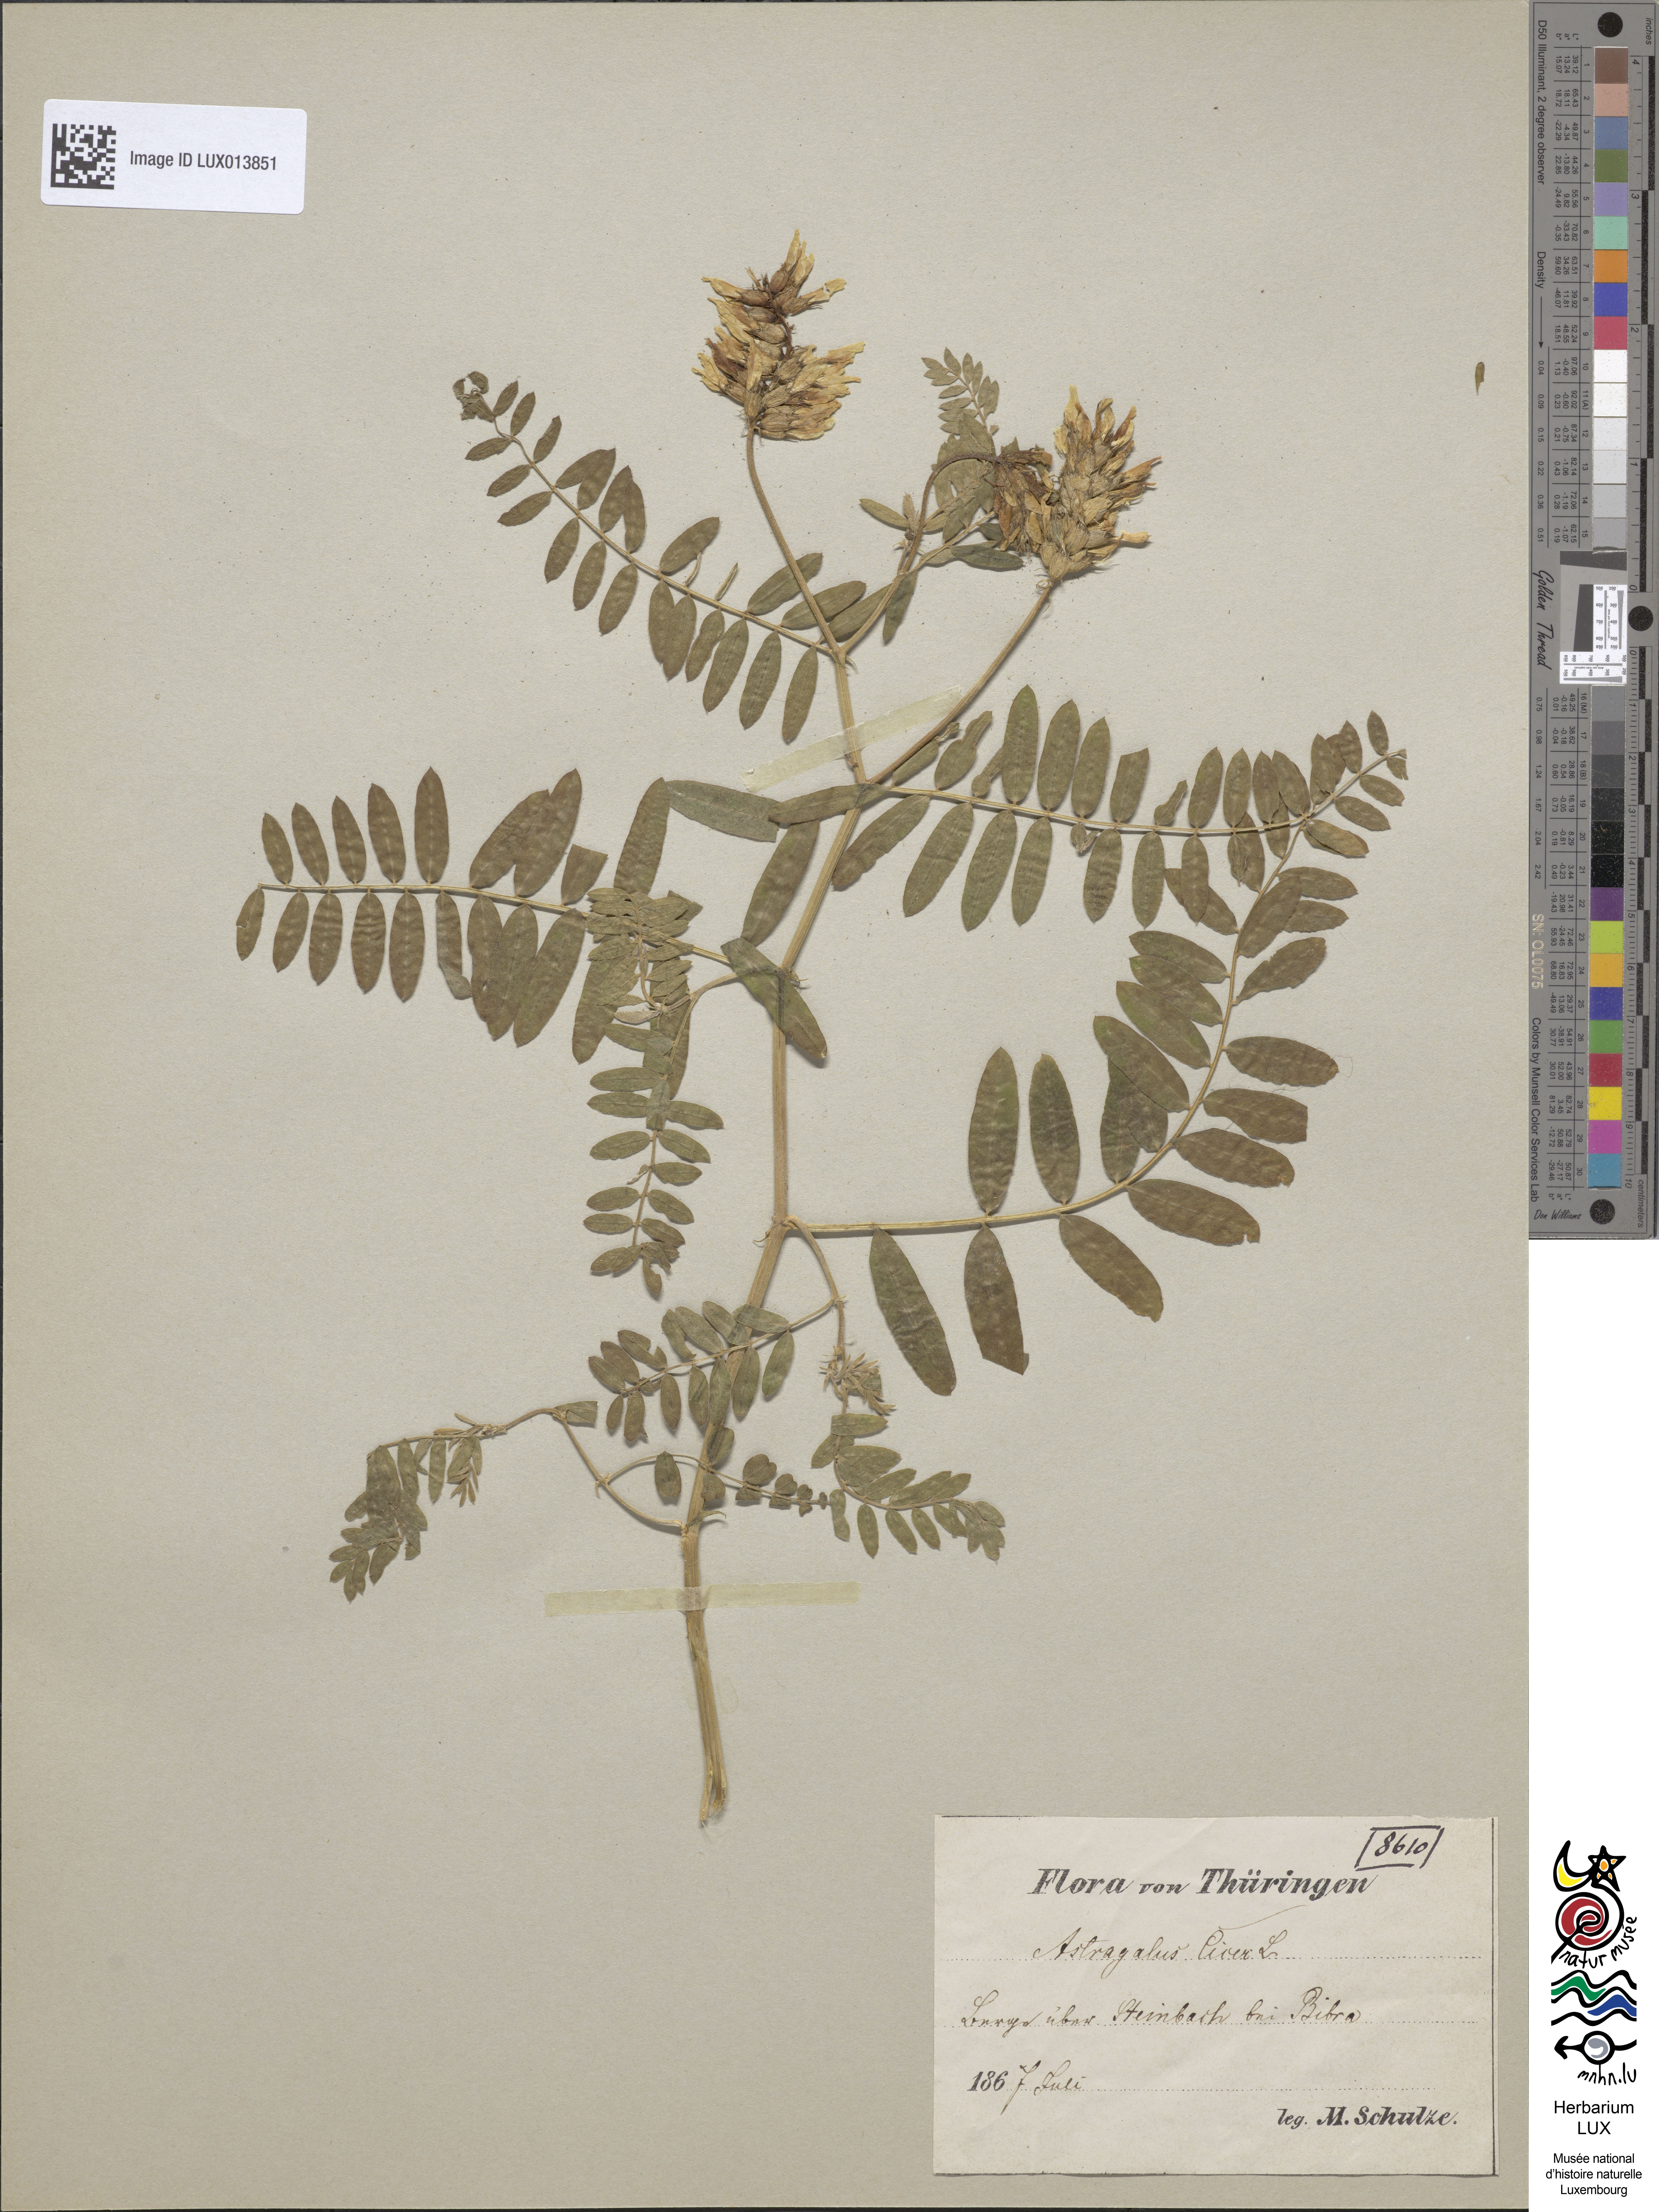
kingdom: Plantae
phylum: Tracheophyta
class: Magnoliopsida
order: Fabales
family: Fabaceae
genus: Astragalus
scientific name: Astragalus cicer
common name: Chick-pea milk-vetch
